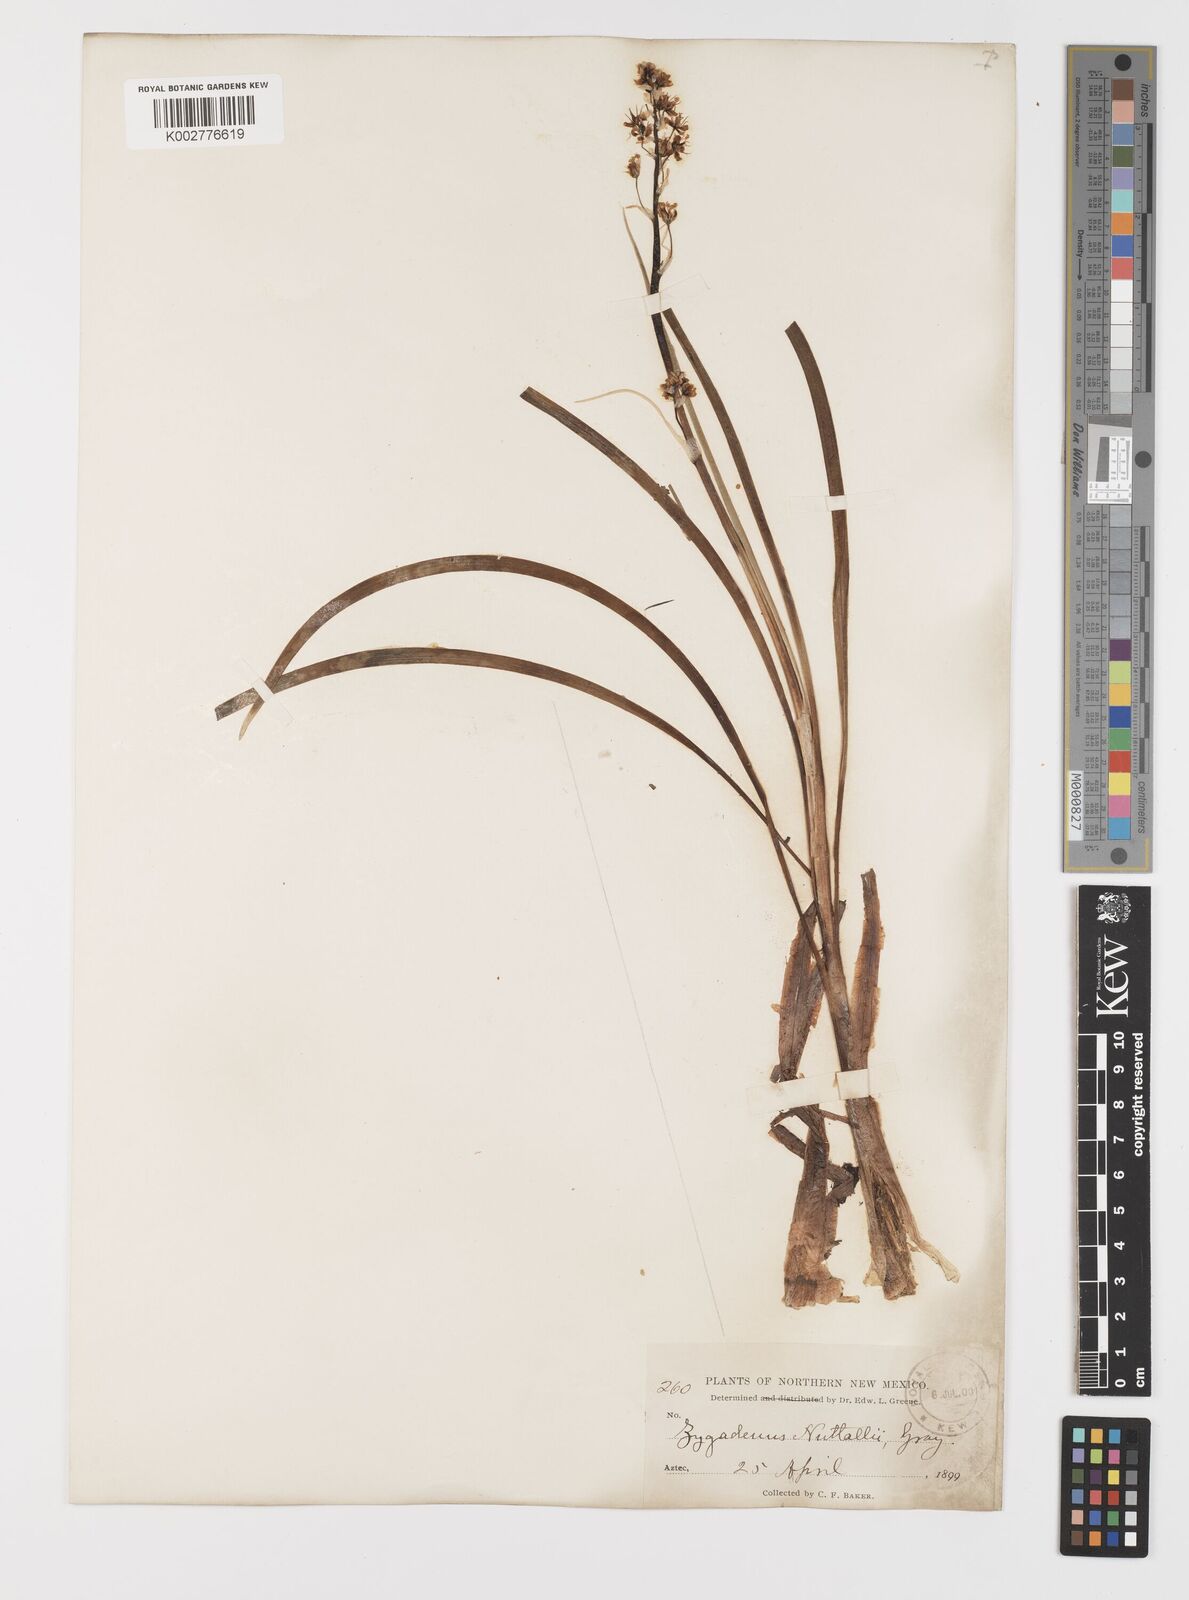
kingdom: Plantae
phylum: Tracheophyta
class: Liliopsida
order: Liliales
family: Melanthiaceae
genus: Toxicoscordion
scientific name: Toxicoscordion venenosum
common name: Meadow death camas
